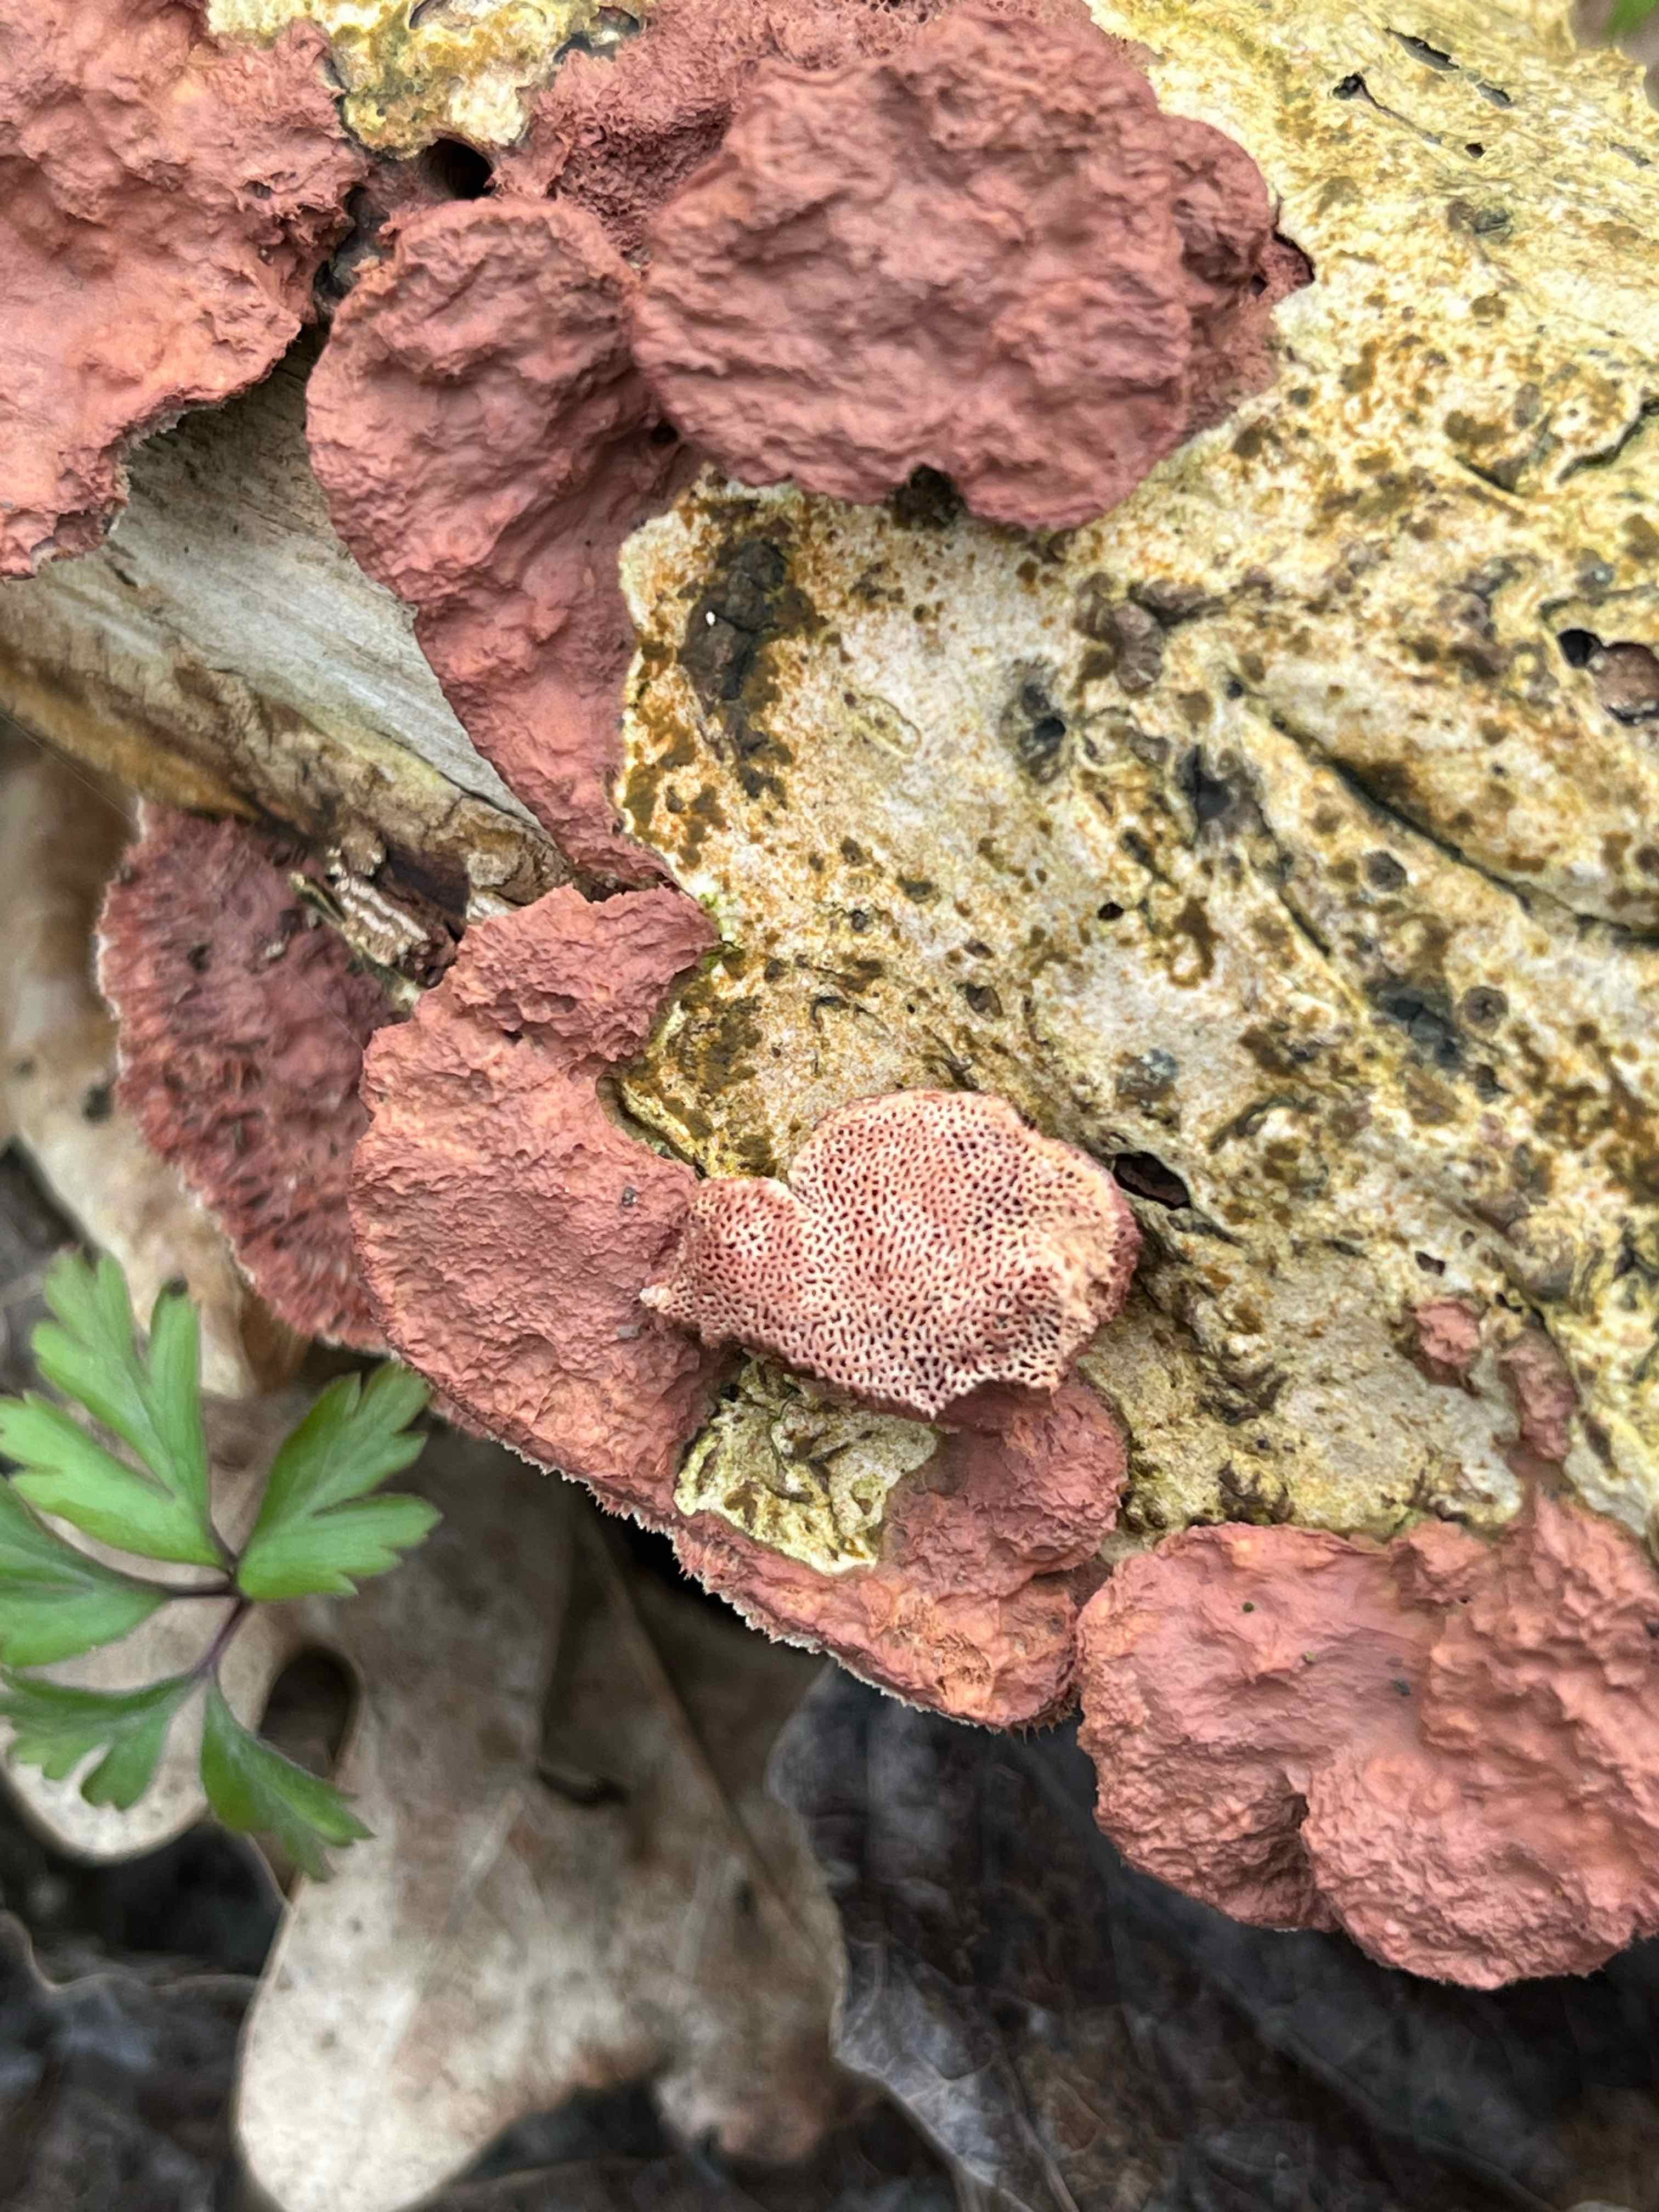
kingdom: Fungi
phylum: Basidiomycota
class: Agaricomycetes
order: Polyporales
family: Phanerochaetaceae
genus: Hapalopilus
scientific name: Hapalopilus rutilans
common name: rødlig okkerporesvamp
